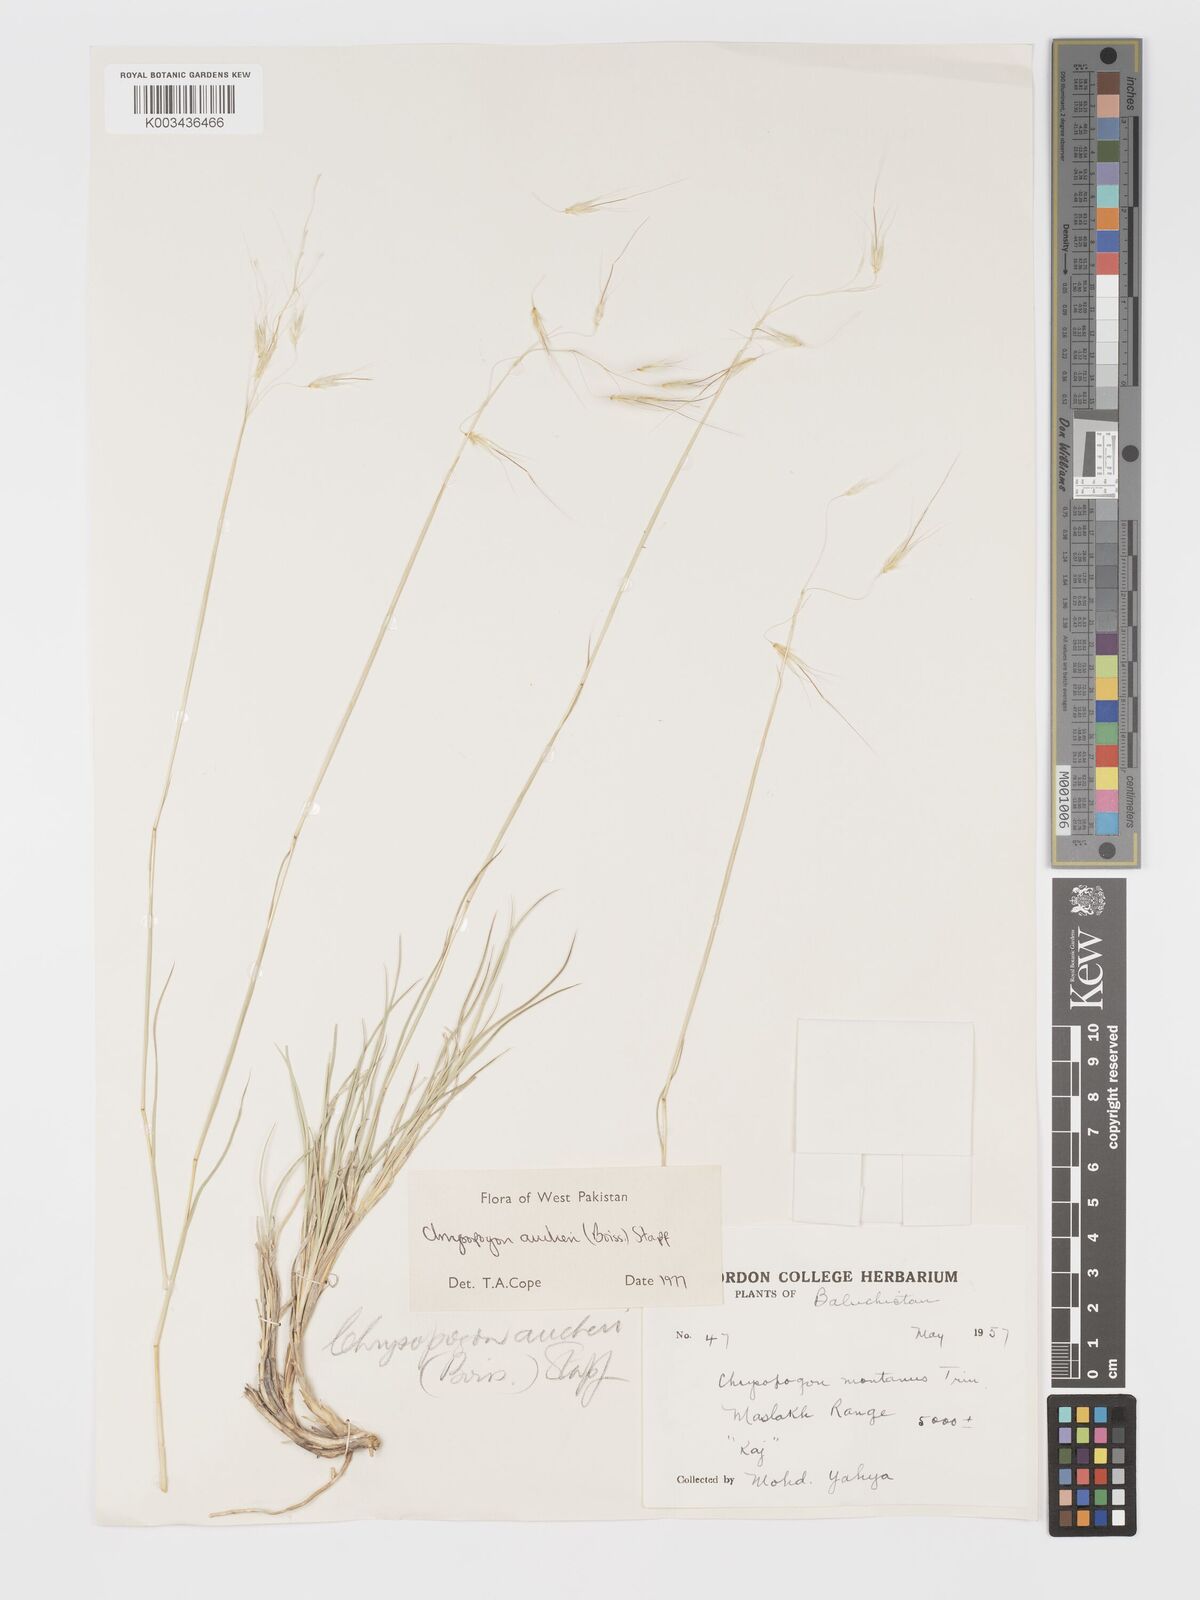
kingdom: Plantae
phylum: Tracheophyta
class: Liliopsida
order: Poales
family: Poaceae
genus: Chrysopogon
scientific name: Chrysopogon aucheri
